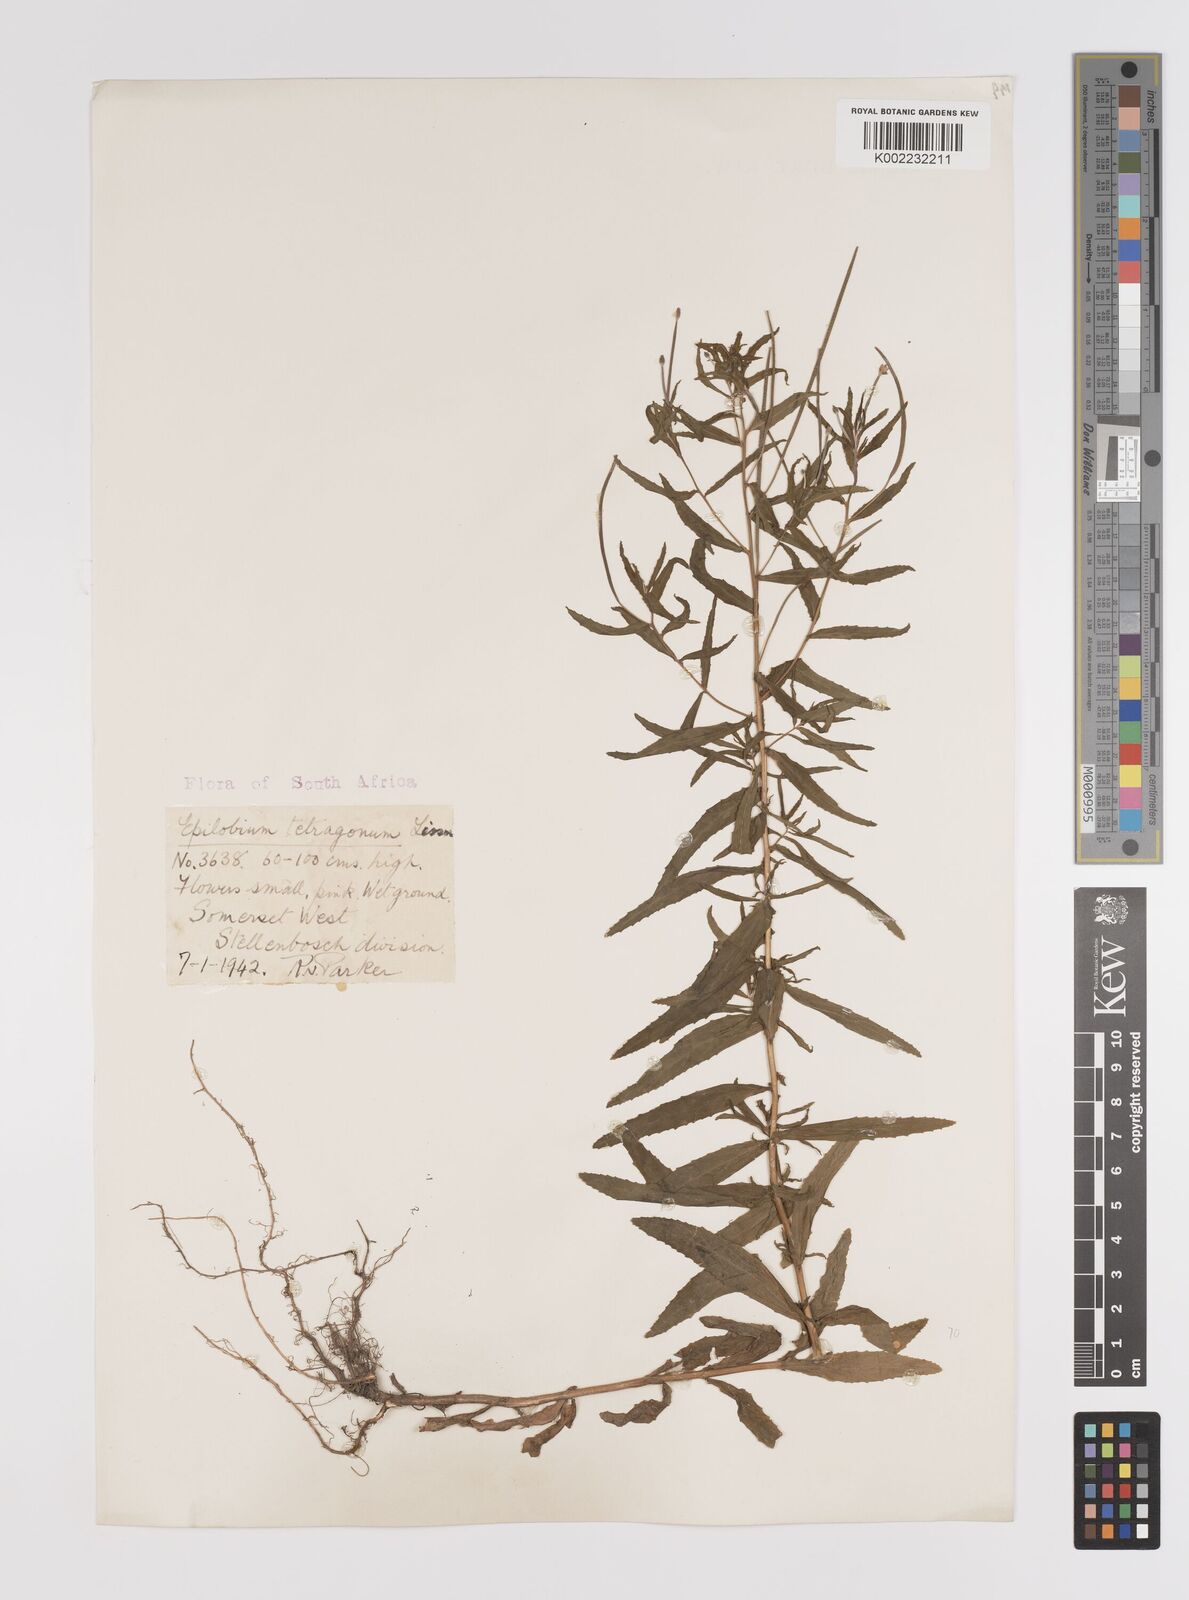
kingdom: Plantae
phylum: Tracheophyta
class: Magnoliopsida
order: Myrtales
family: Onagraceae
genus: Epilobium
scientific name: Epilobium tetragonum
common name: Square-stemmed willowherb
